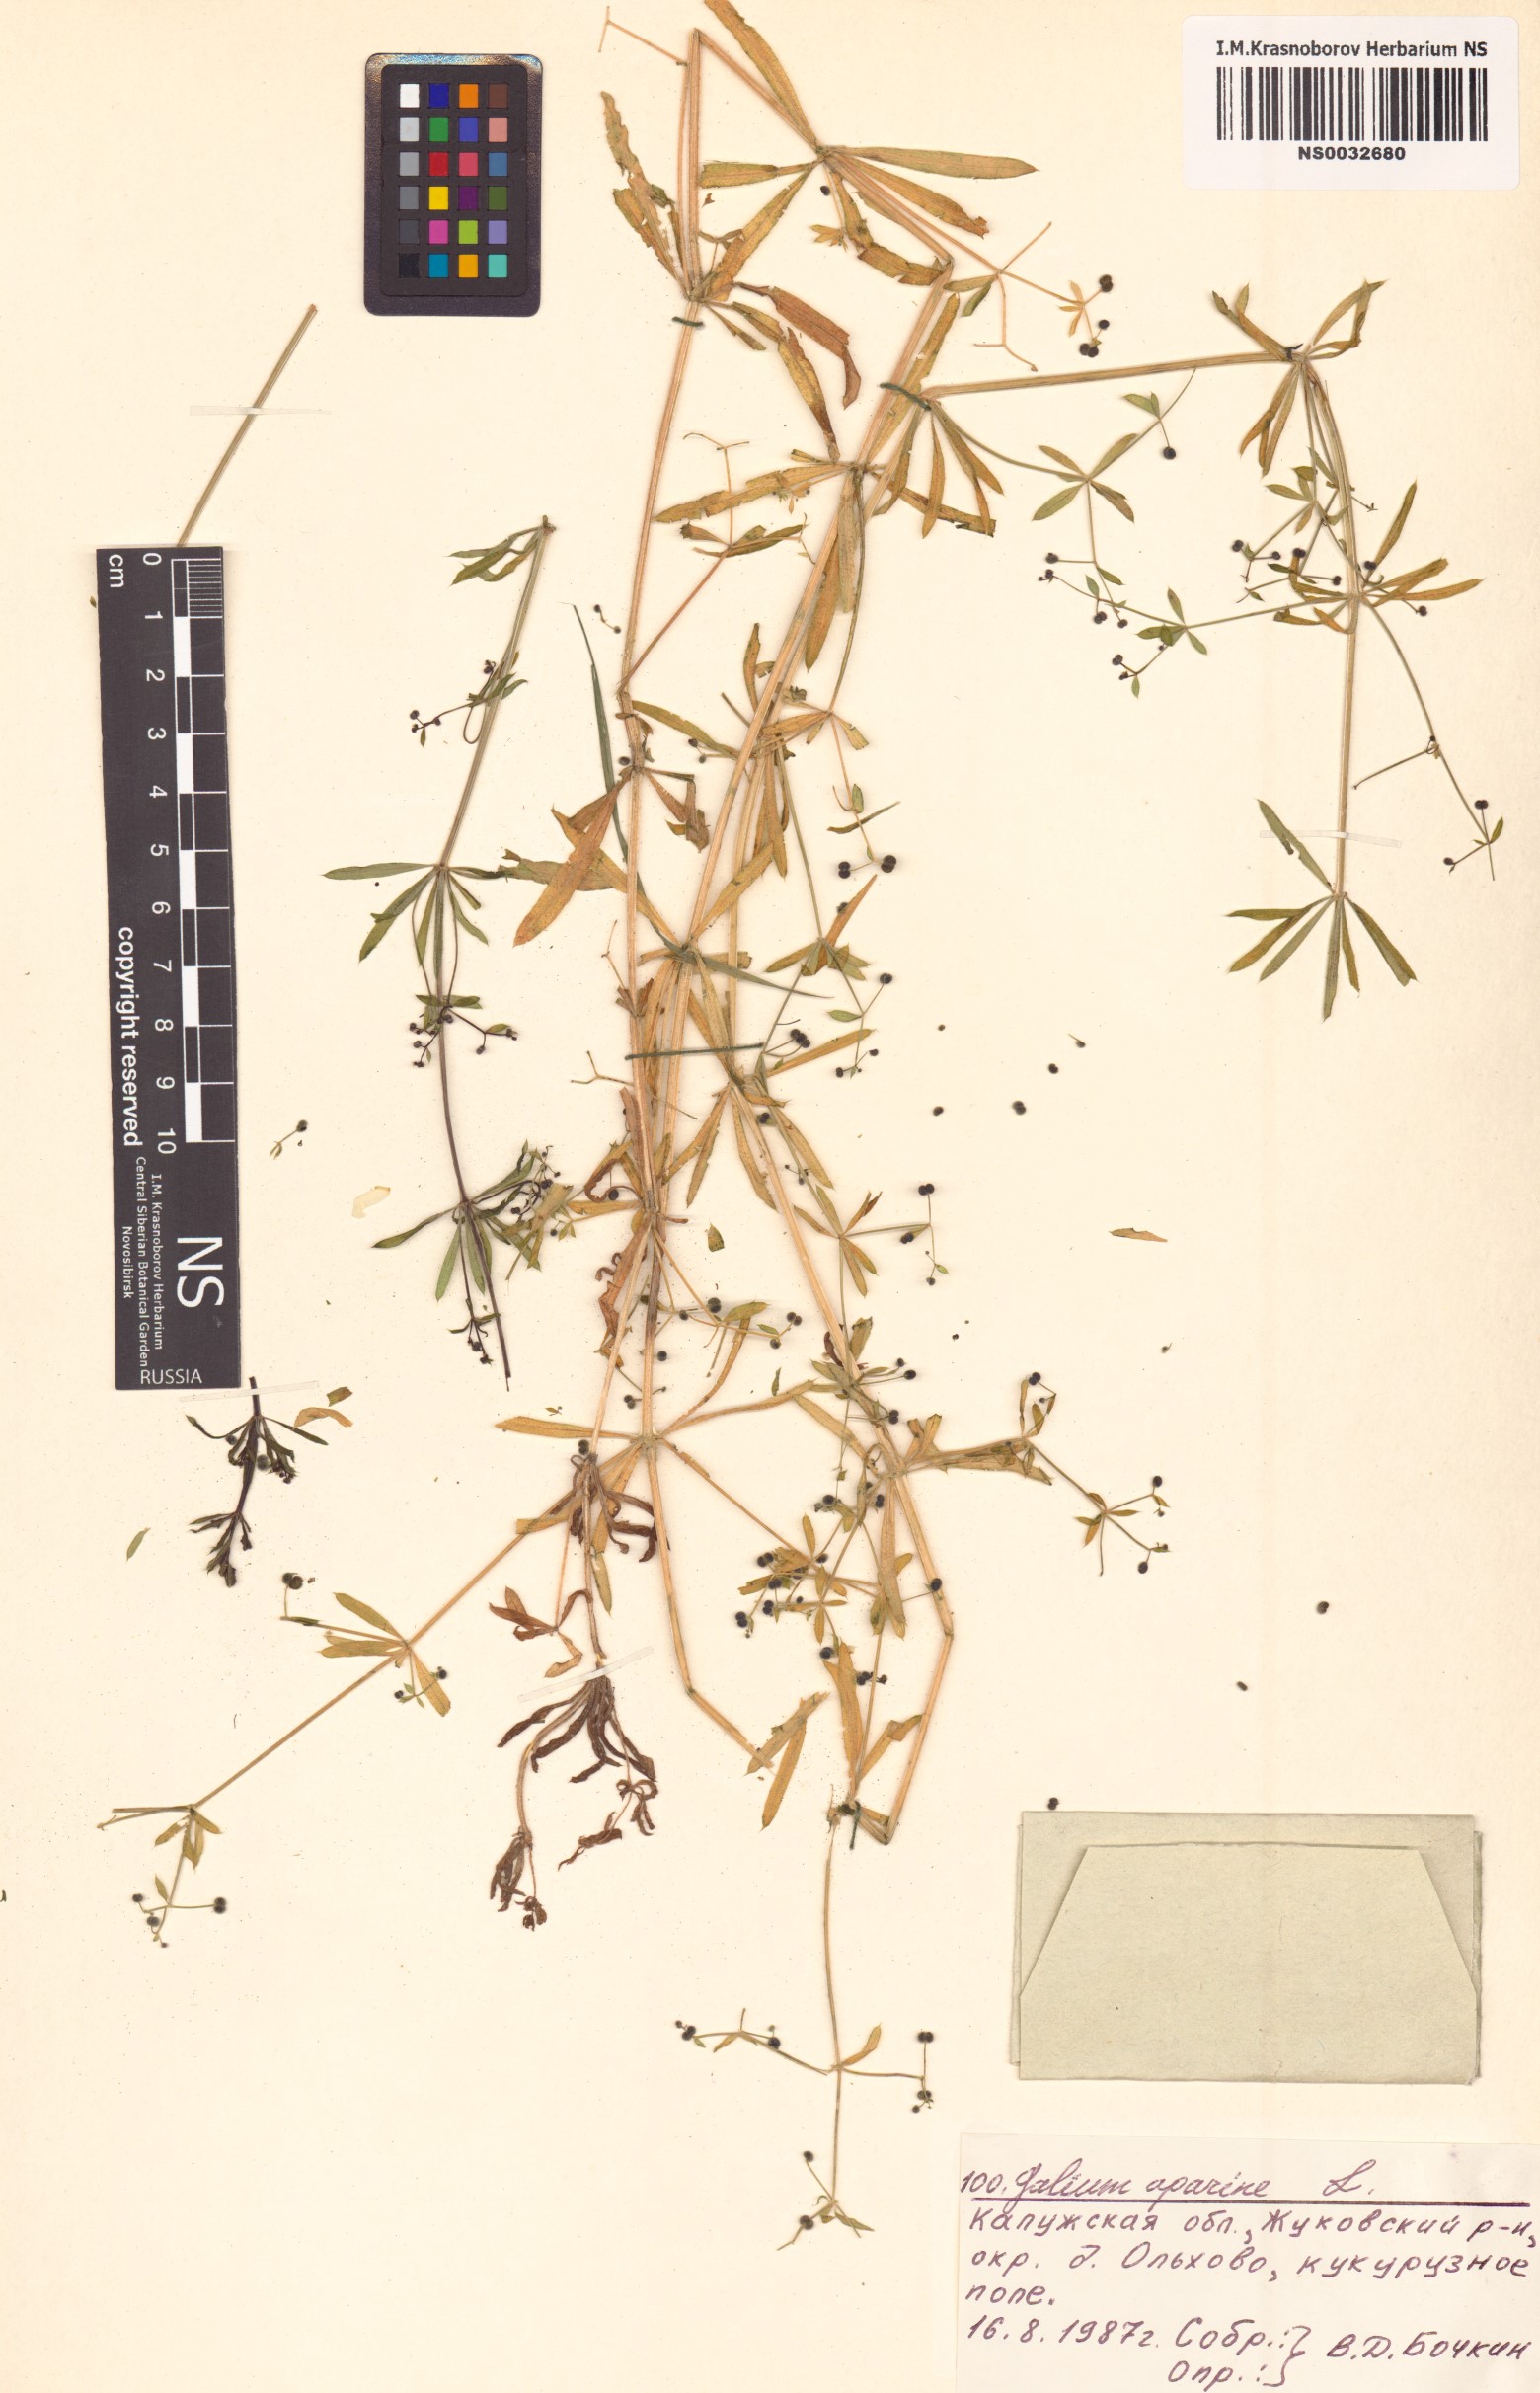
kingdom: Plantae
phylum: Tracheophyta
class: Magnoliopsida
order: Gentianales
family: Rubiaceae
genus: Galium
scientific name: Galium aparine
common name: Cleavers
